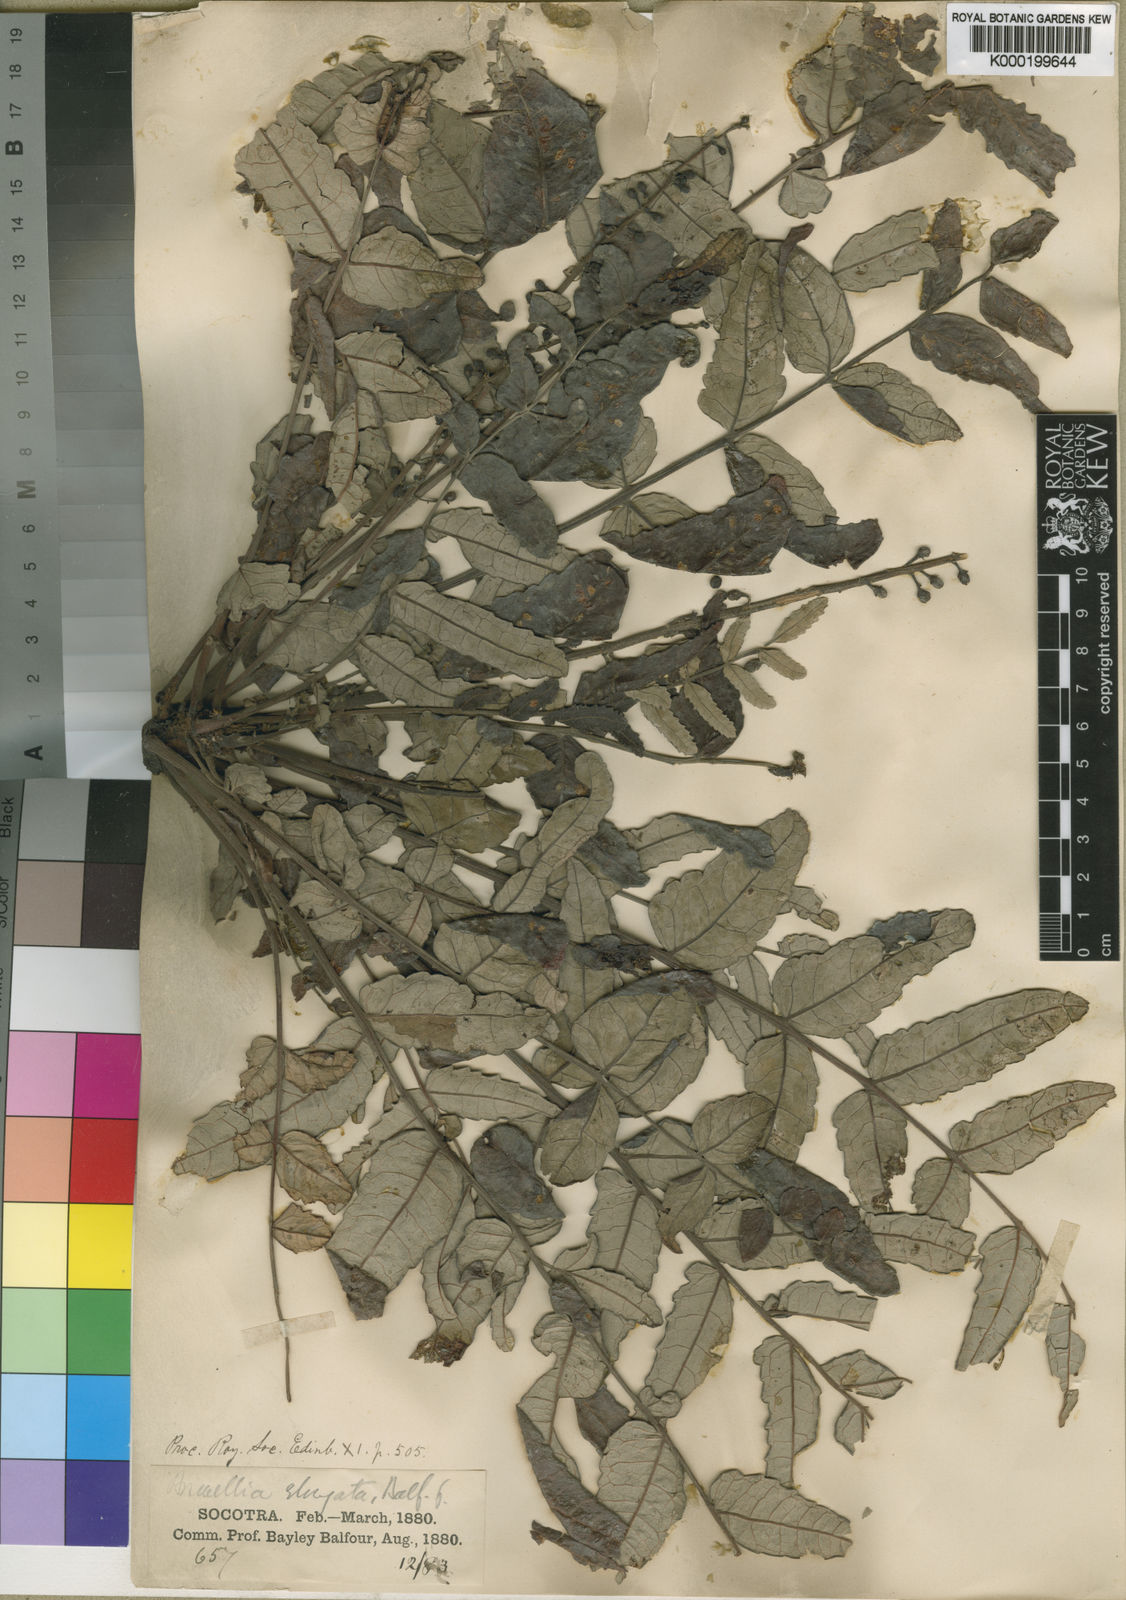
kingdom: Plantae
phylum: Tracheophyta
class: Magnoliopsida
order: Sapindales
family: Burseraceae
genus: Boswellia
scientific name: Boswellia elongata
